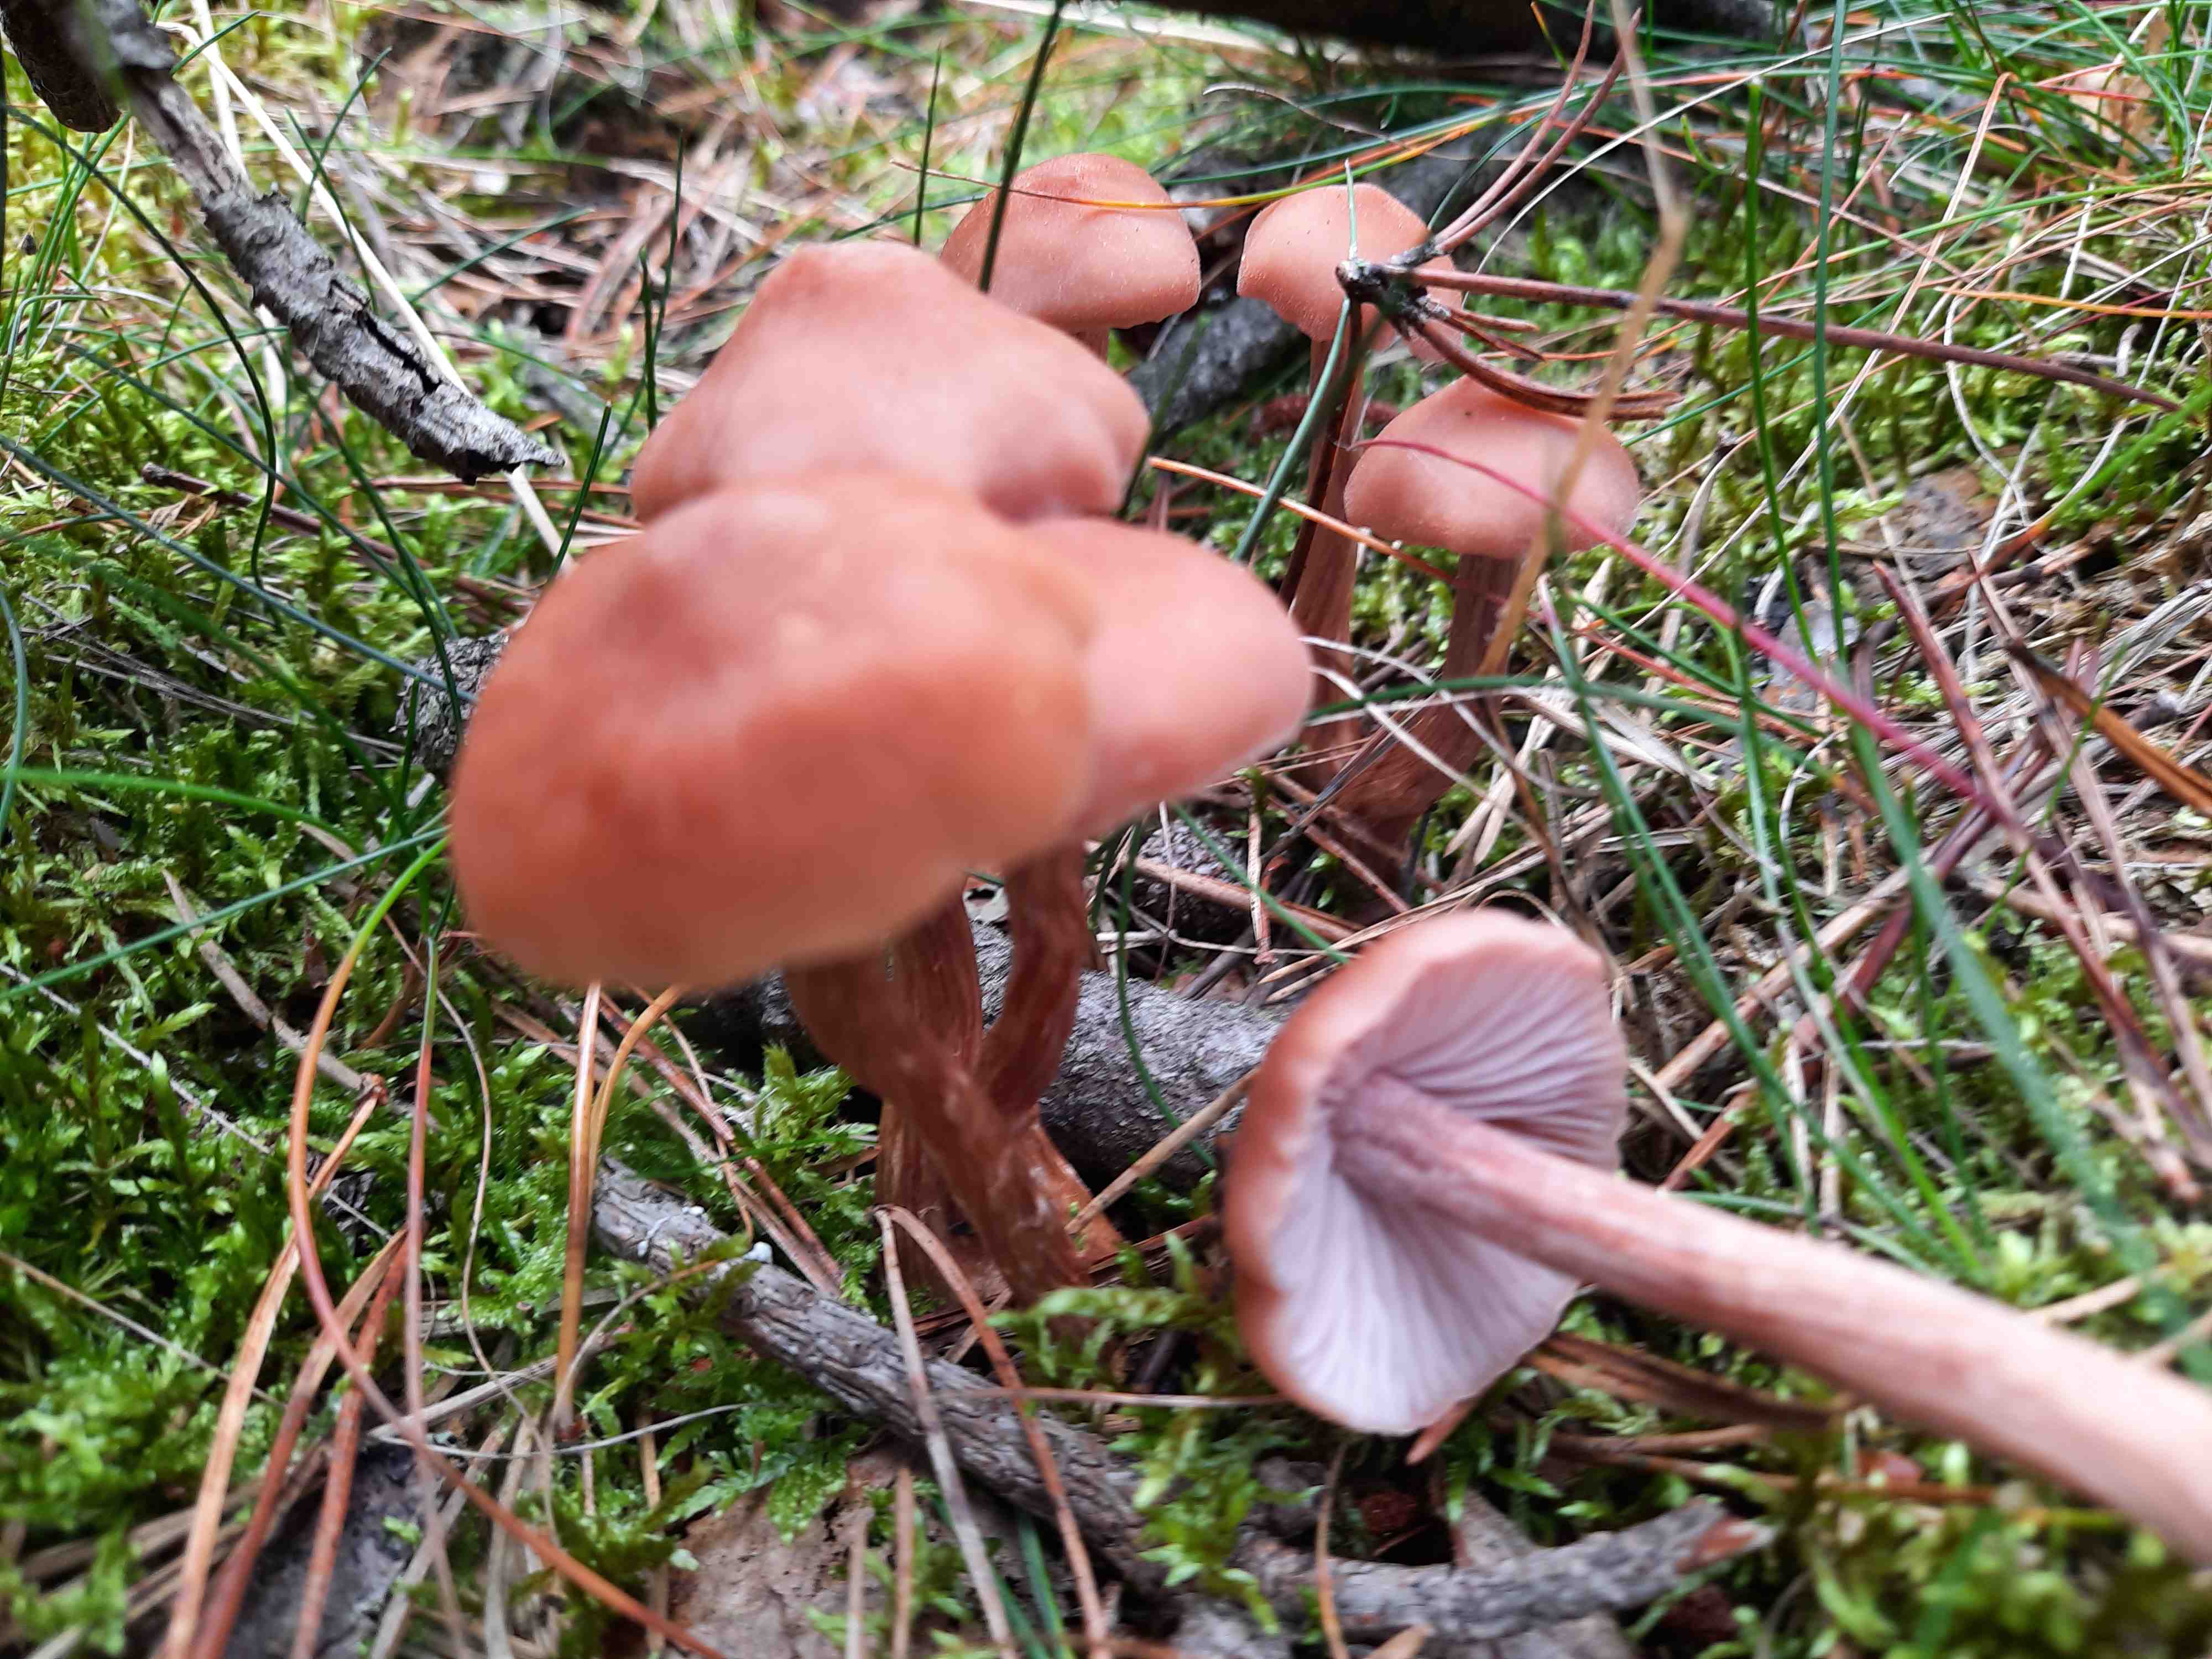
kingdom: Fungi
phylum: Basidiomycota
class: Agaricomycetes
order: Agaricales
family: Hydnangiaceae
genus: Laccaria
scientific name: Laccaria bicolor
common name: tvefarvet ametysthat
